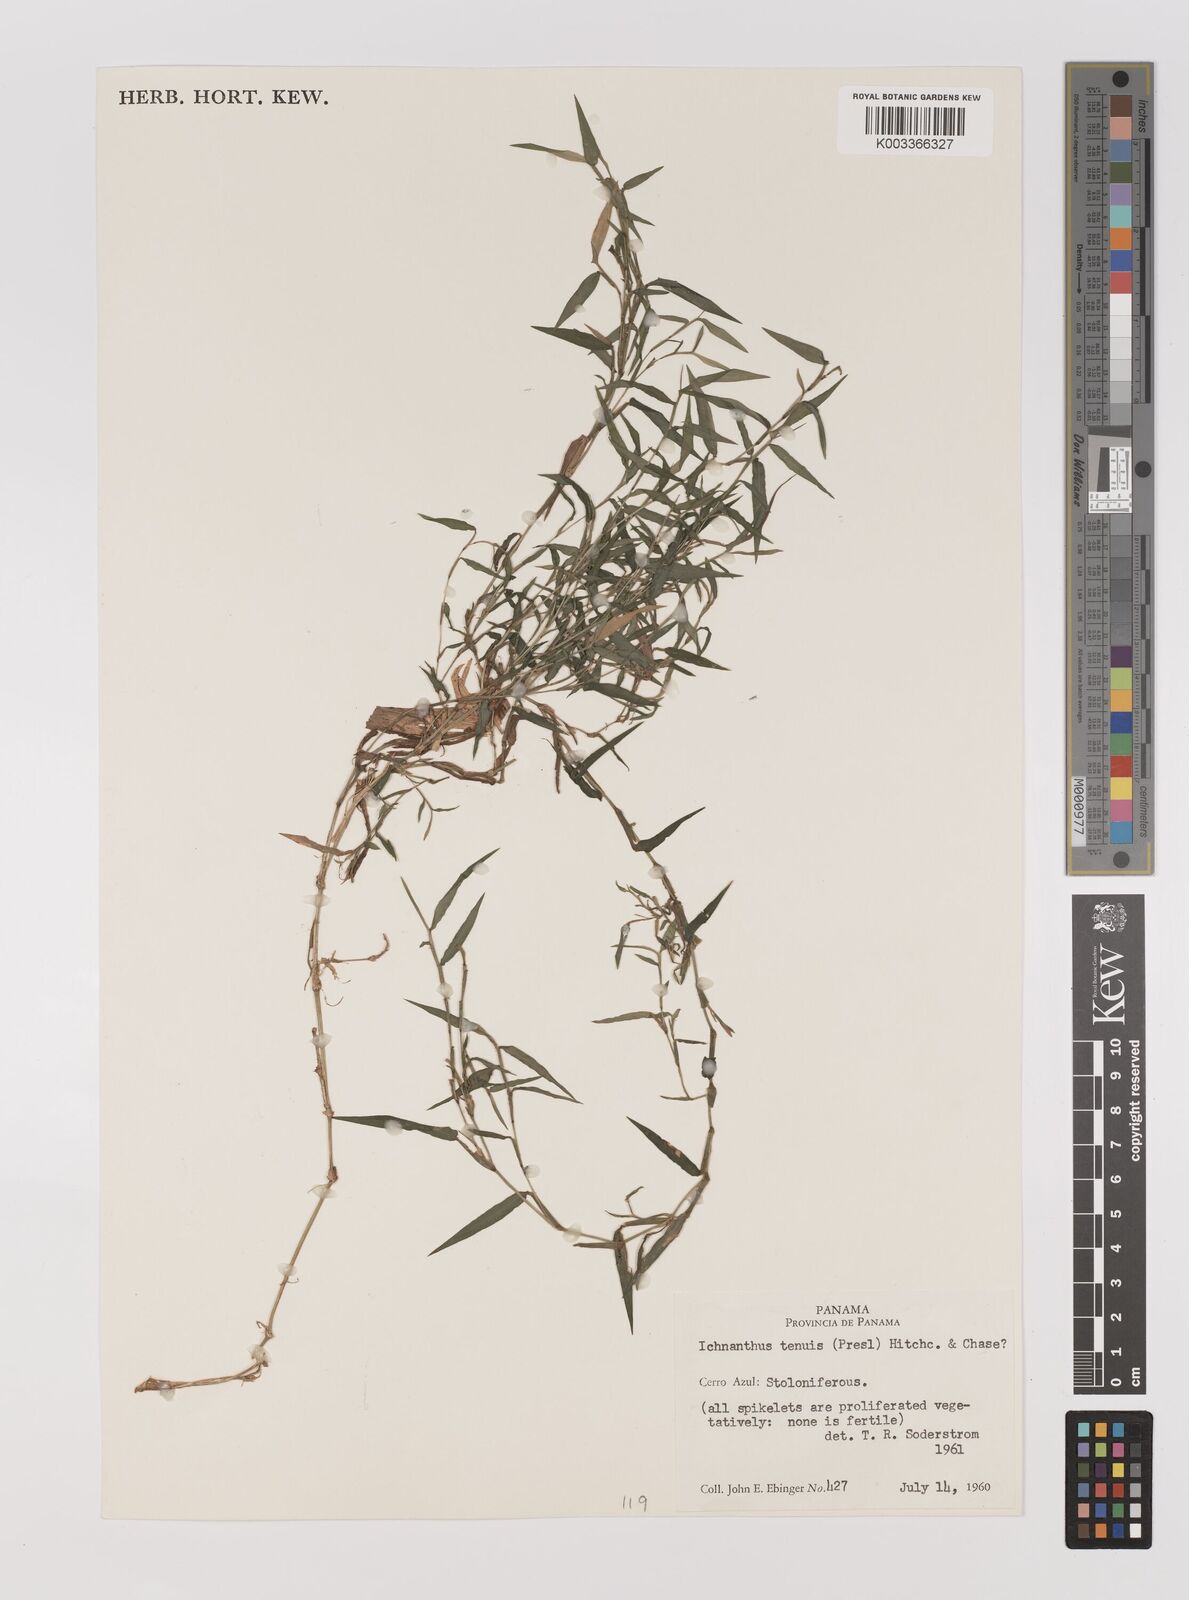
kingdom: Plantae
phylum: Tracheophyta
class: Liliopsida
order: Poales
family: Poaceae
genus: Ichnanthus
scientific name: Ichnanthus tenuis
